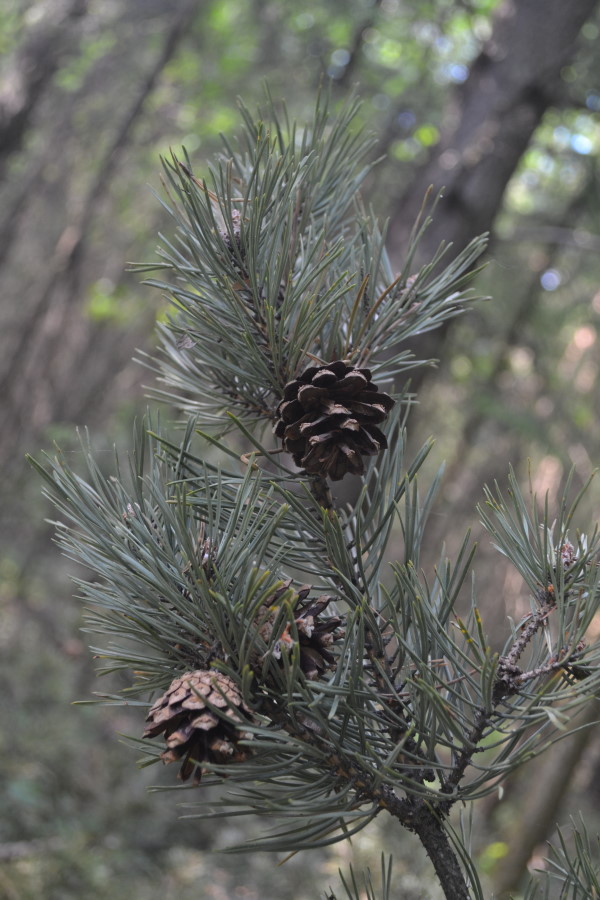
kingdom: Plantae
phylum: Tracheophyta
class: Pinopsida
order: Pinales
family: Pinaceae
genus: Pinus
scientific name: Pinus sylvestris
